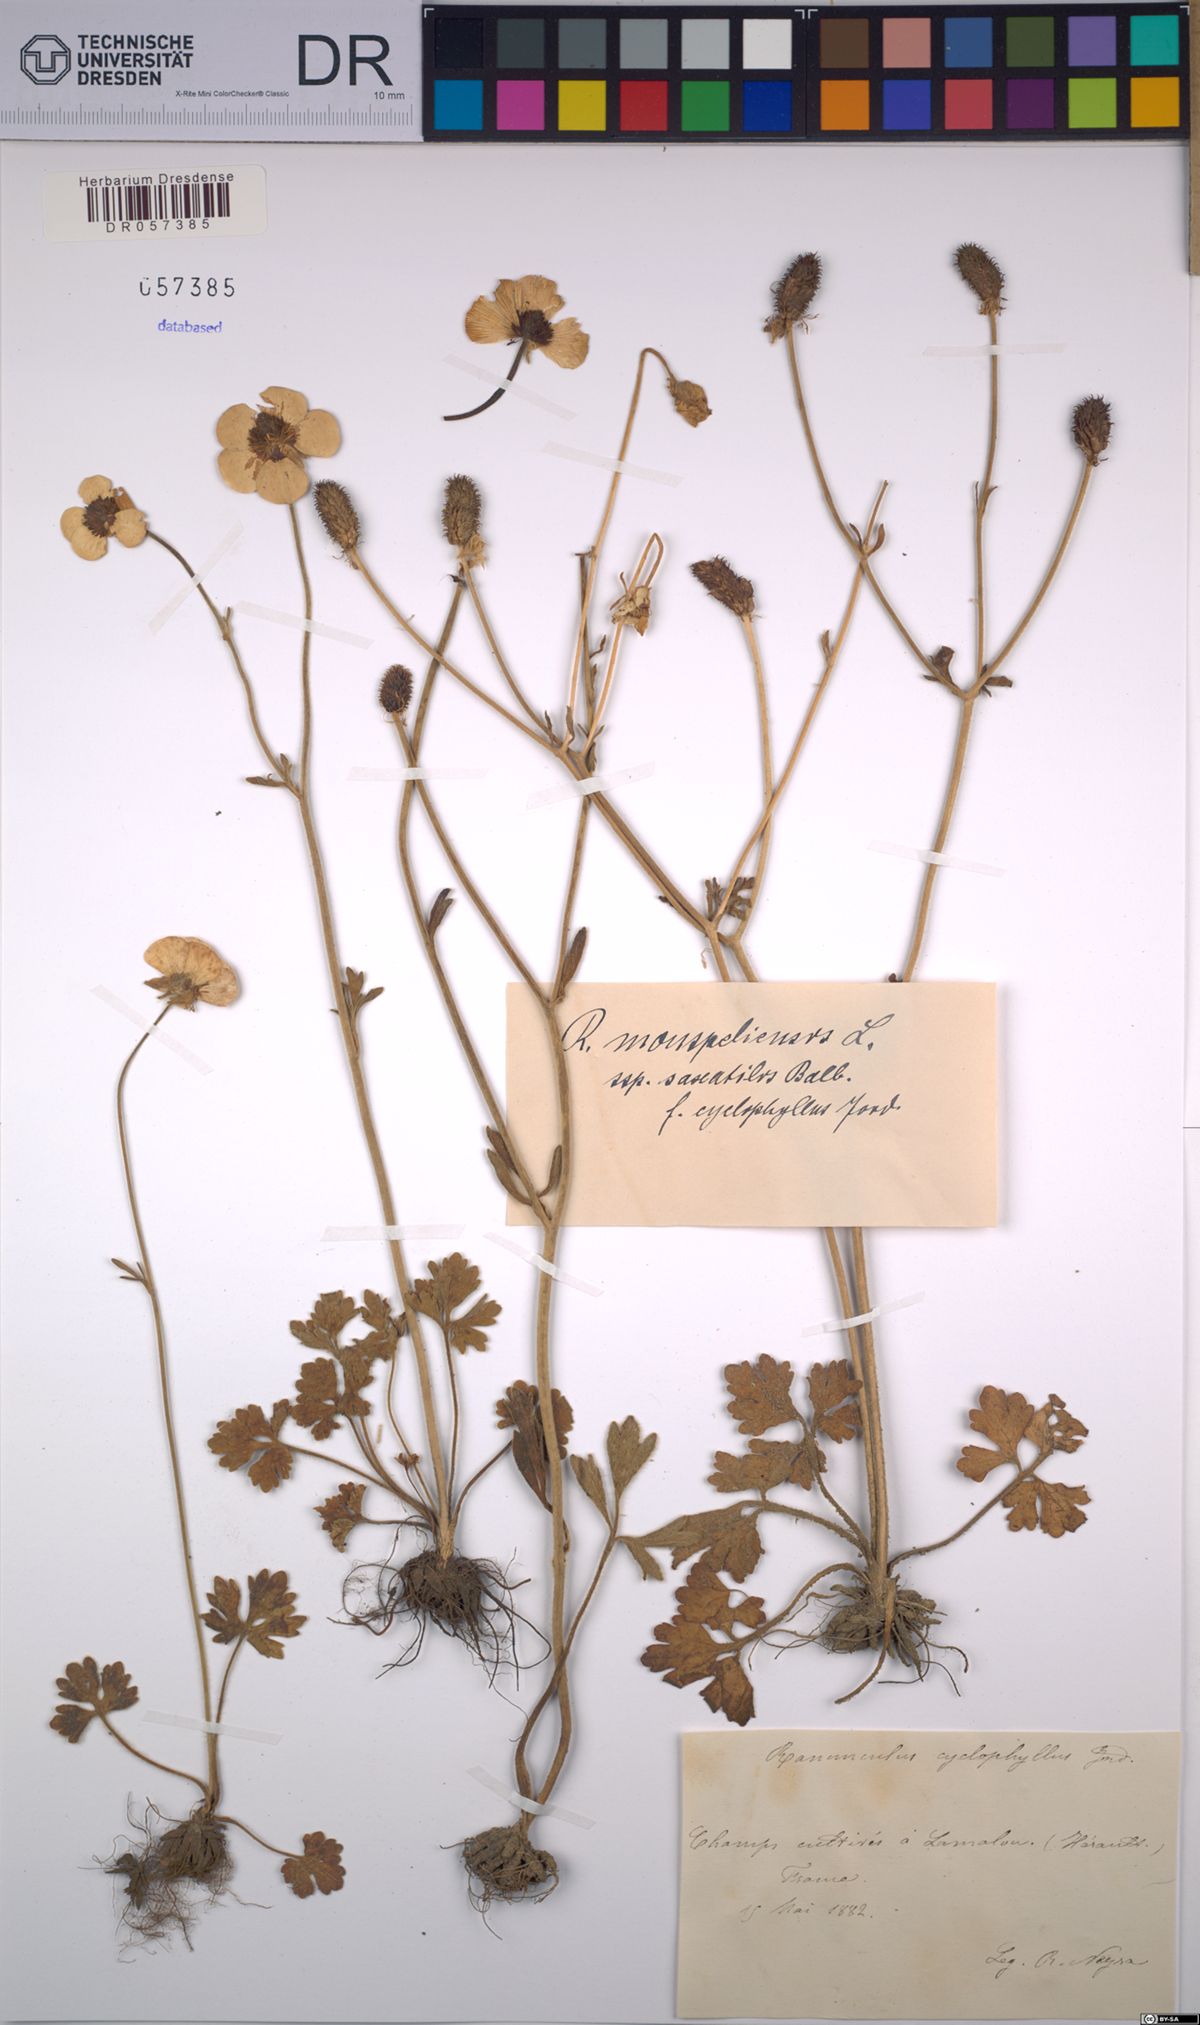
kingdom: Plantae
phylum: Tracheophyta
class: Magnoliopsida
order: Ranunculales
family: Ranunculaceae
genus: Ranunculus
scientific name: Ranunculus monspeliacus
